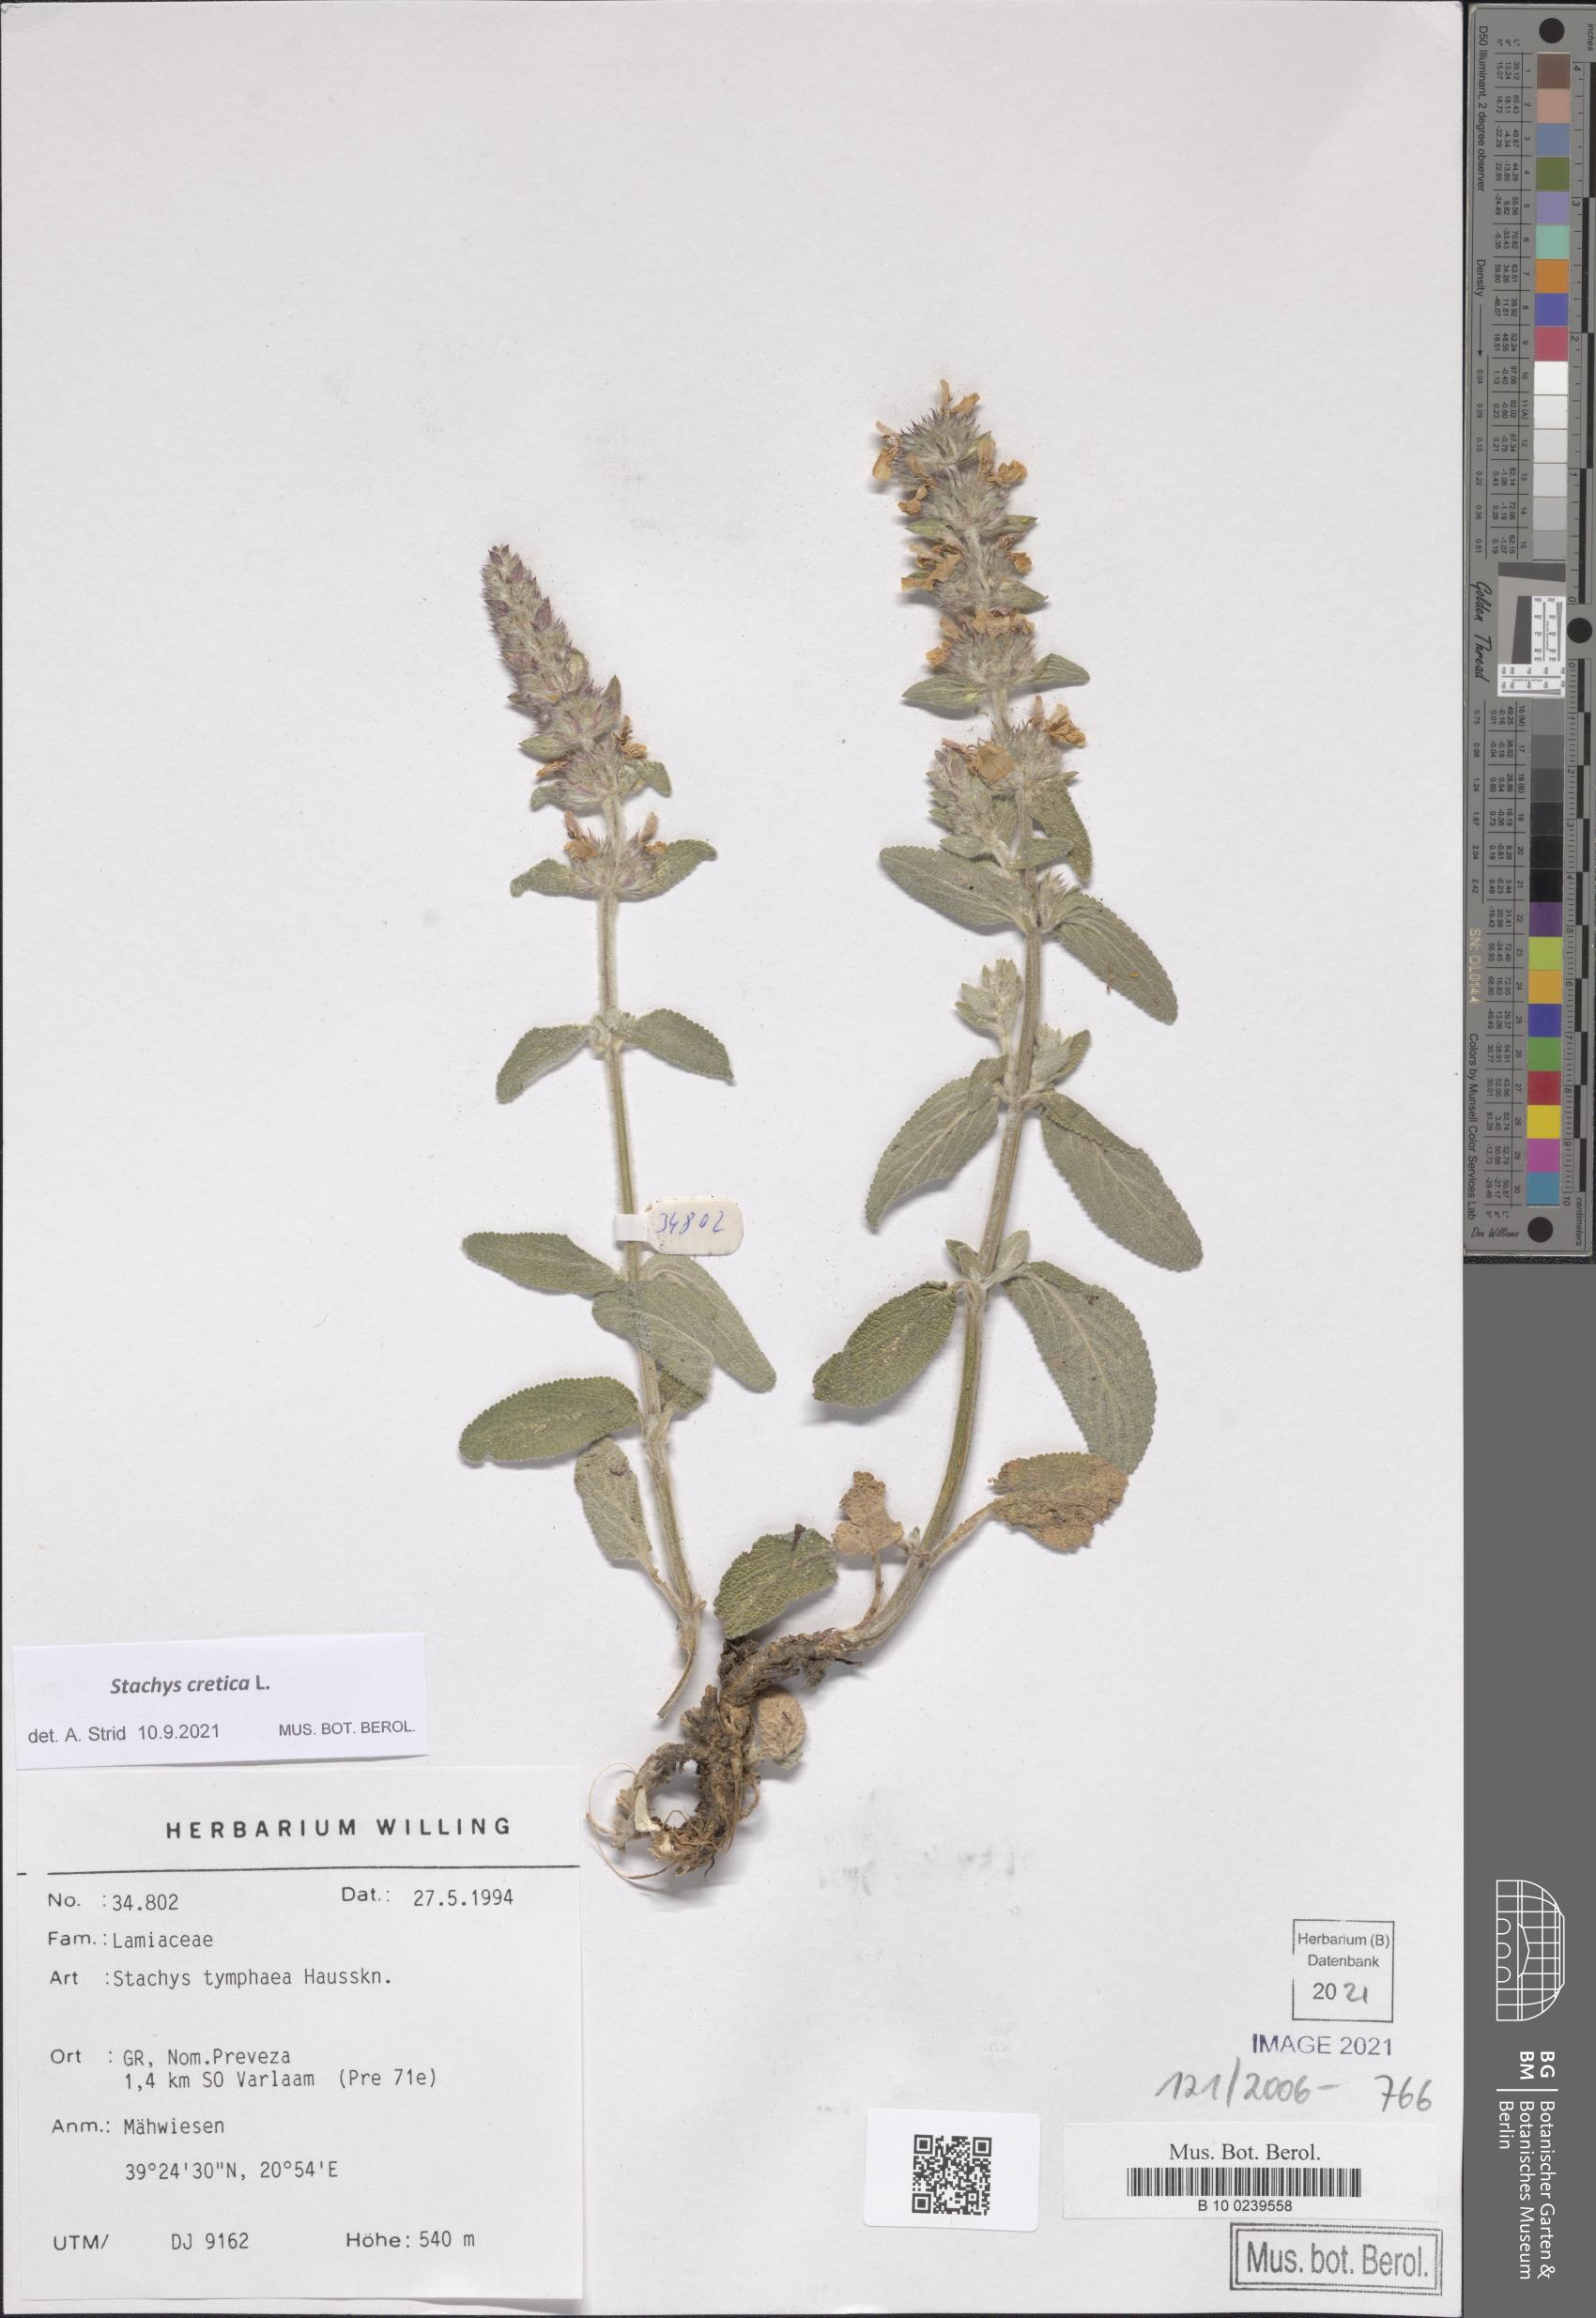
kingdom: Plantae
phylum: Tracheophyta
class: Magnoliopsida
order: Lamiales
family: Lamiaceae
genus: Stachys
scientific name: Stachys cretica
